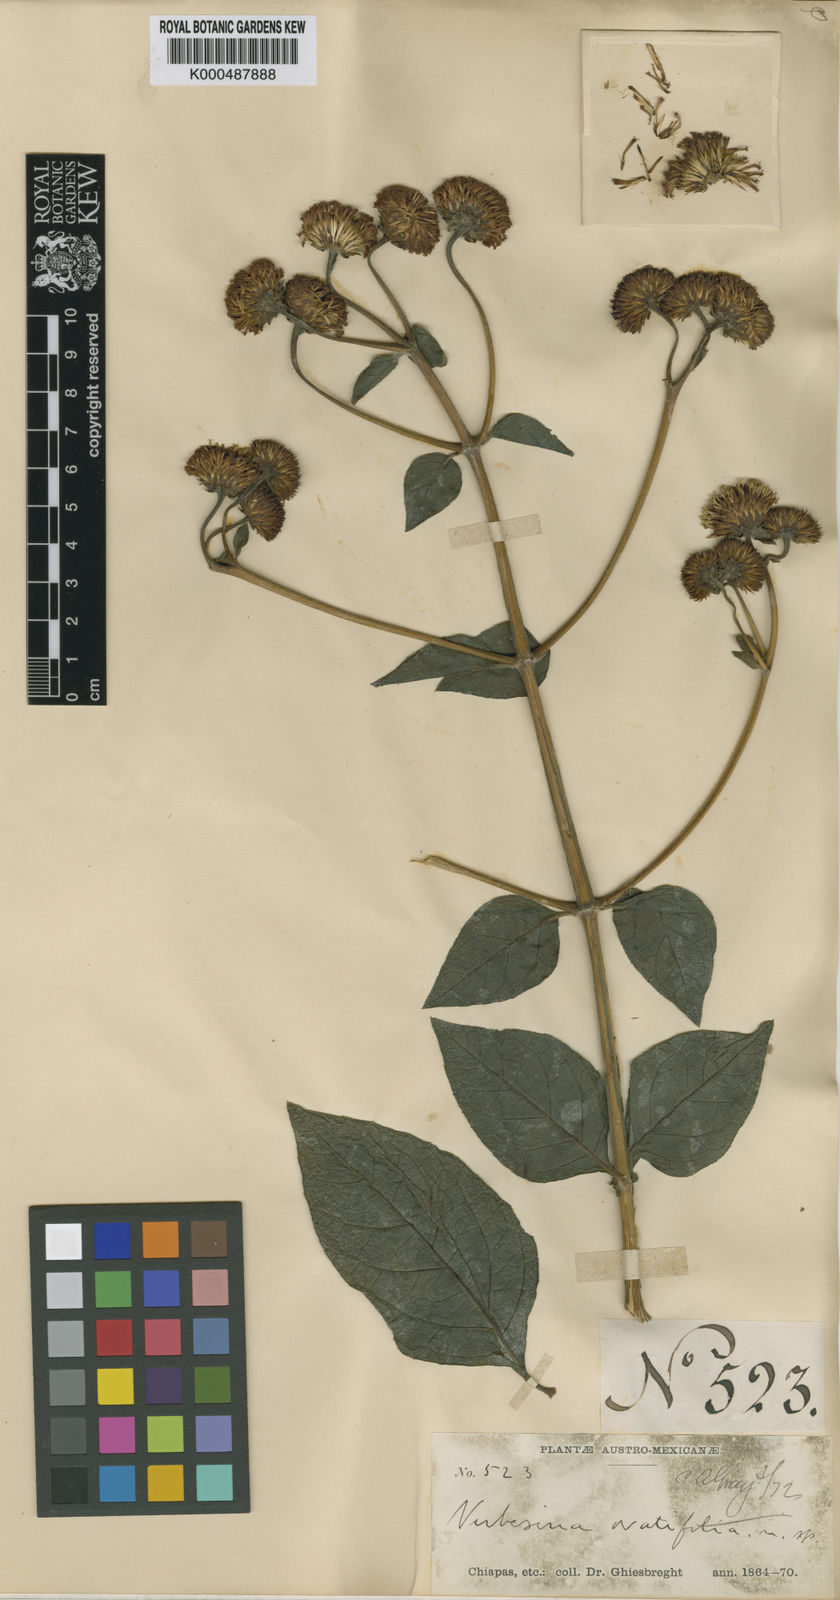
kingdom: Plantae
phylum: Tracheophyta
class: Magnoliopsida
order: Asterales
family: Asteraceae
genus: Verbesina
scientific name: Verbesina ovata
